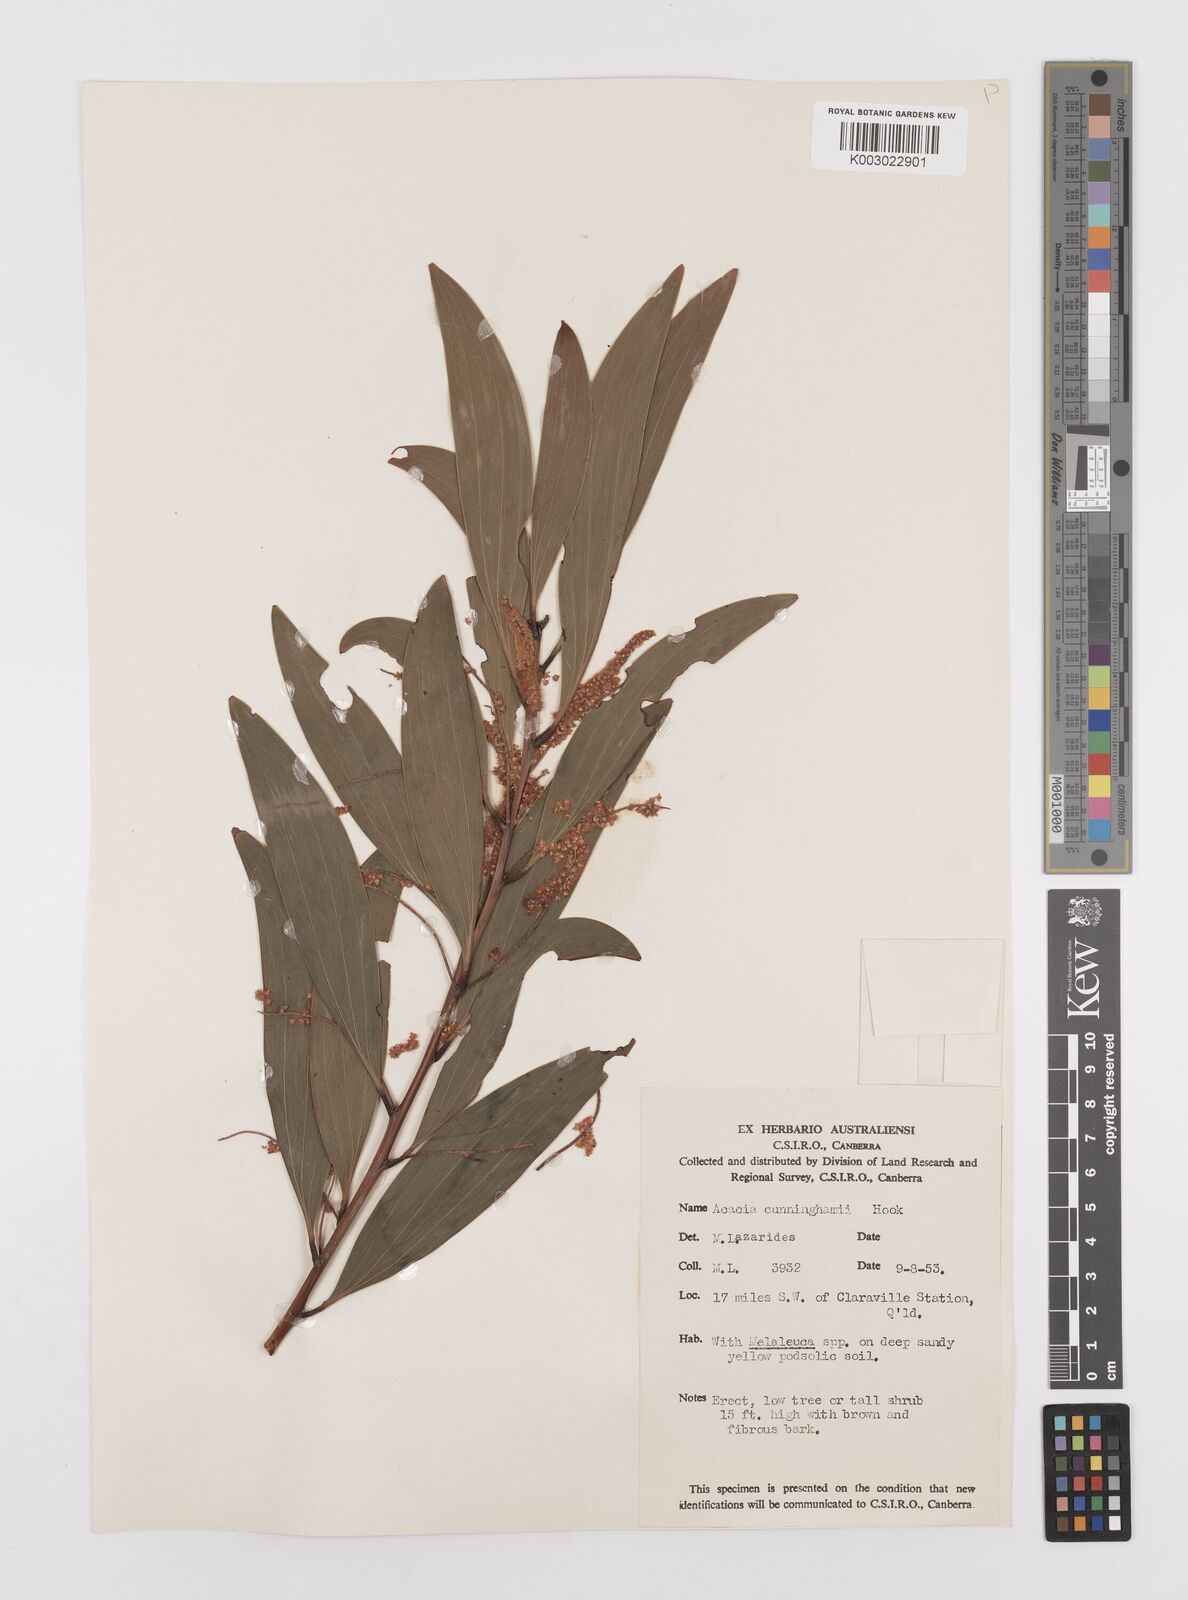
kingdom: Plantae
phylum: Tracheophyta
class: Magnoliopsida
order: Fabales
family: Fabaceae
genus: Acacia
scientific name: Acacia tropica
